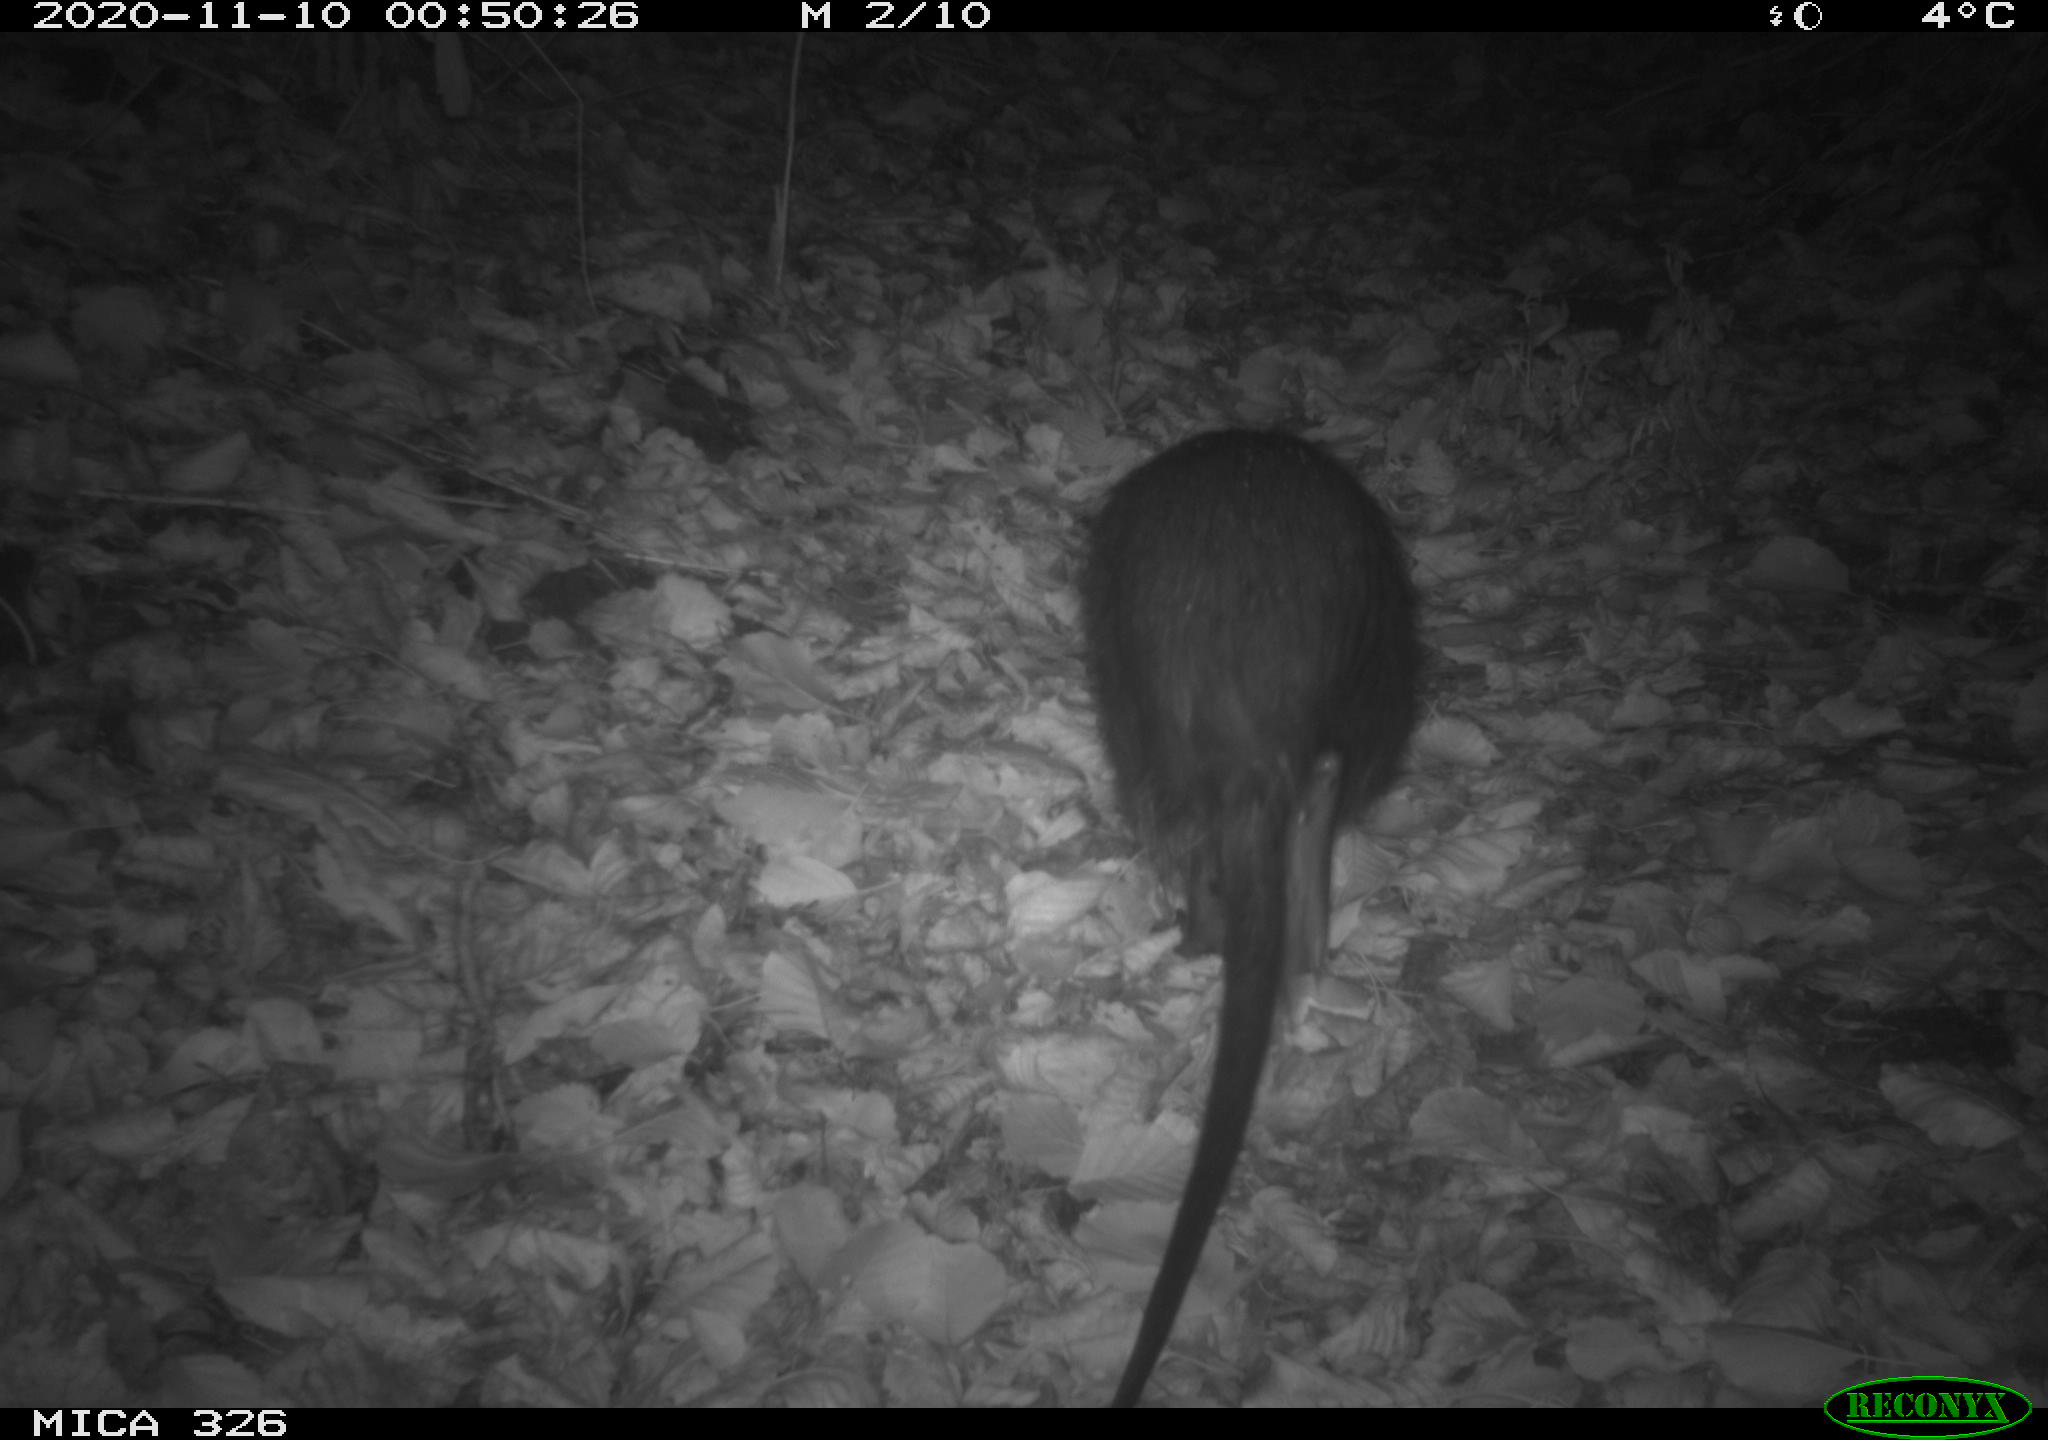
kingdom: Animalia
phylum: Chordata
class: Mammalia
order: Rodentia
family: Myocastoridae
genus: Myocastor
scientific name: Myocastor coypus
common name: Coypu
